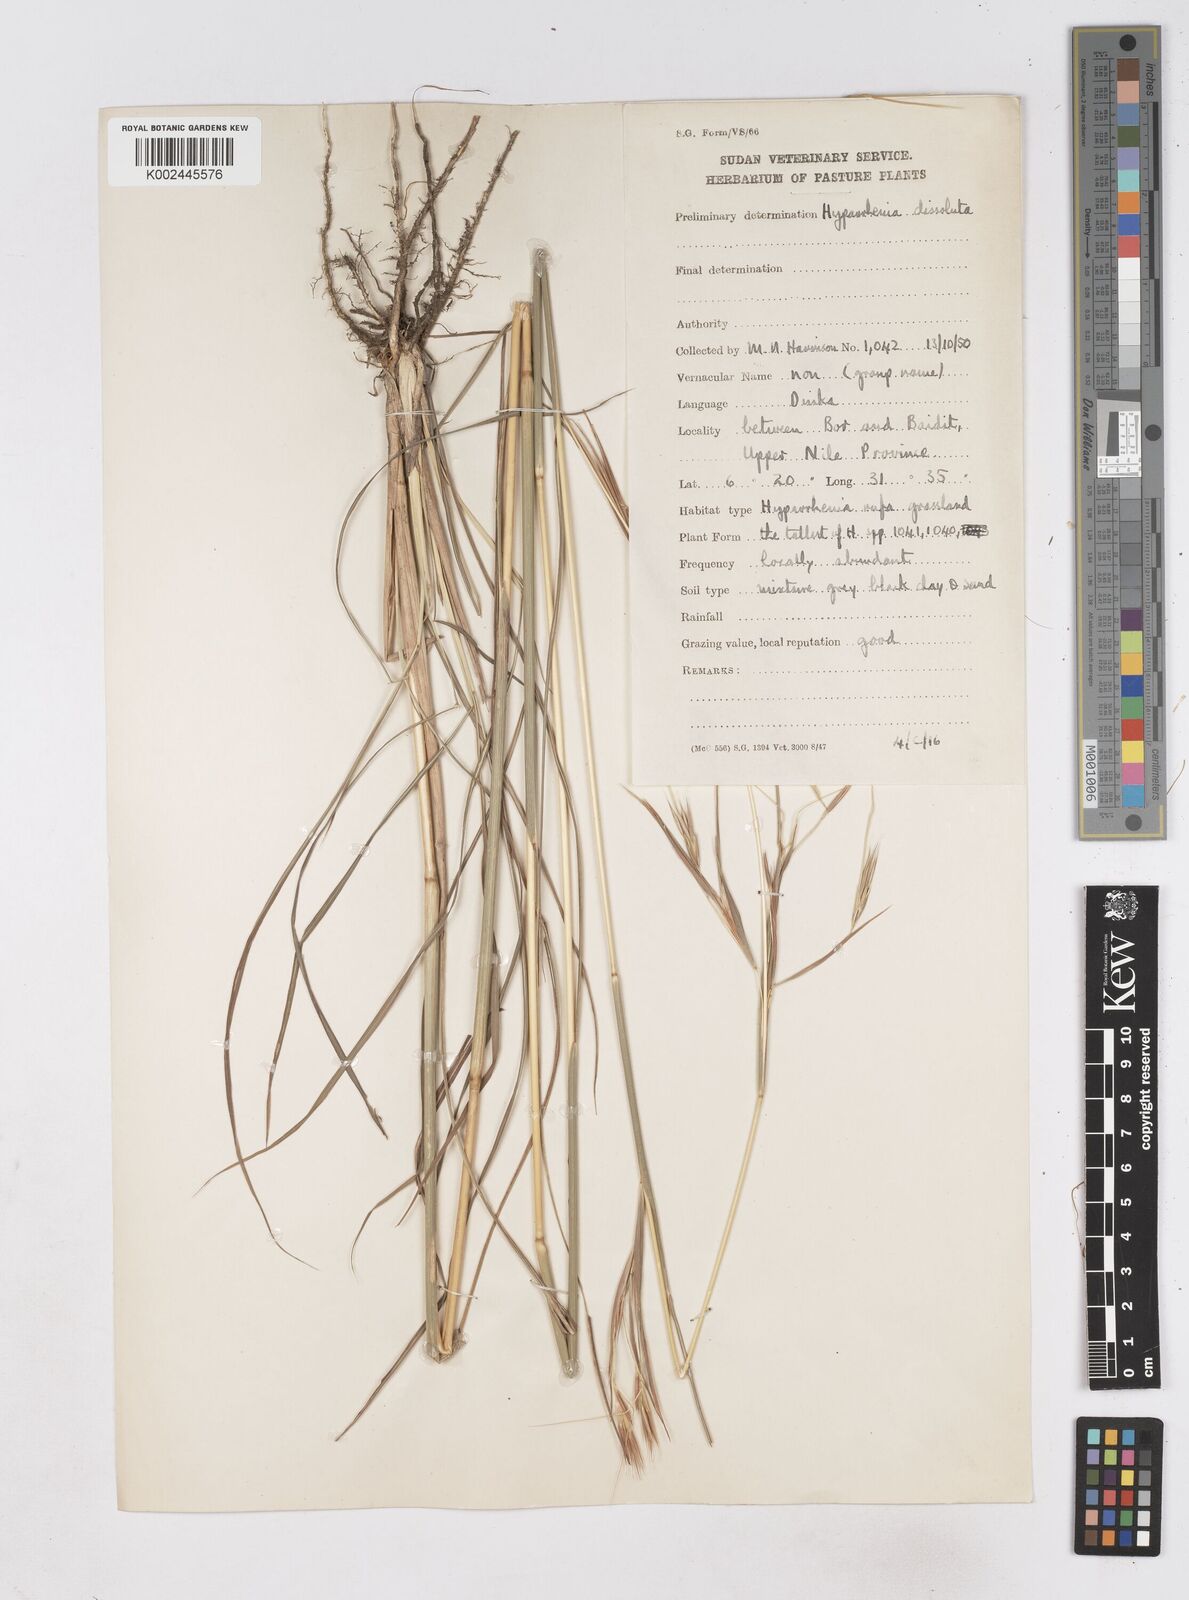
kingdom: Plantae
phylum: Tracheophyta
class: Liliopsida
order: Poales
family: Poaceae
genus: Hyperthelia
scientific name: Hyperthelia dissoluta
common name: Yellow thatching grass
